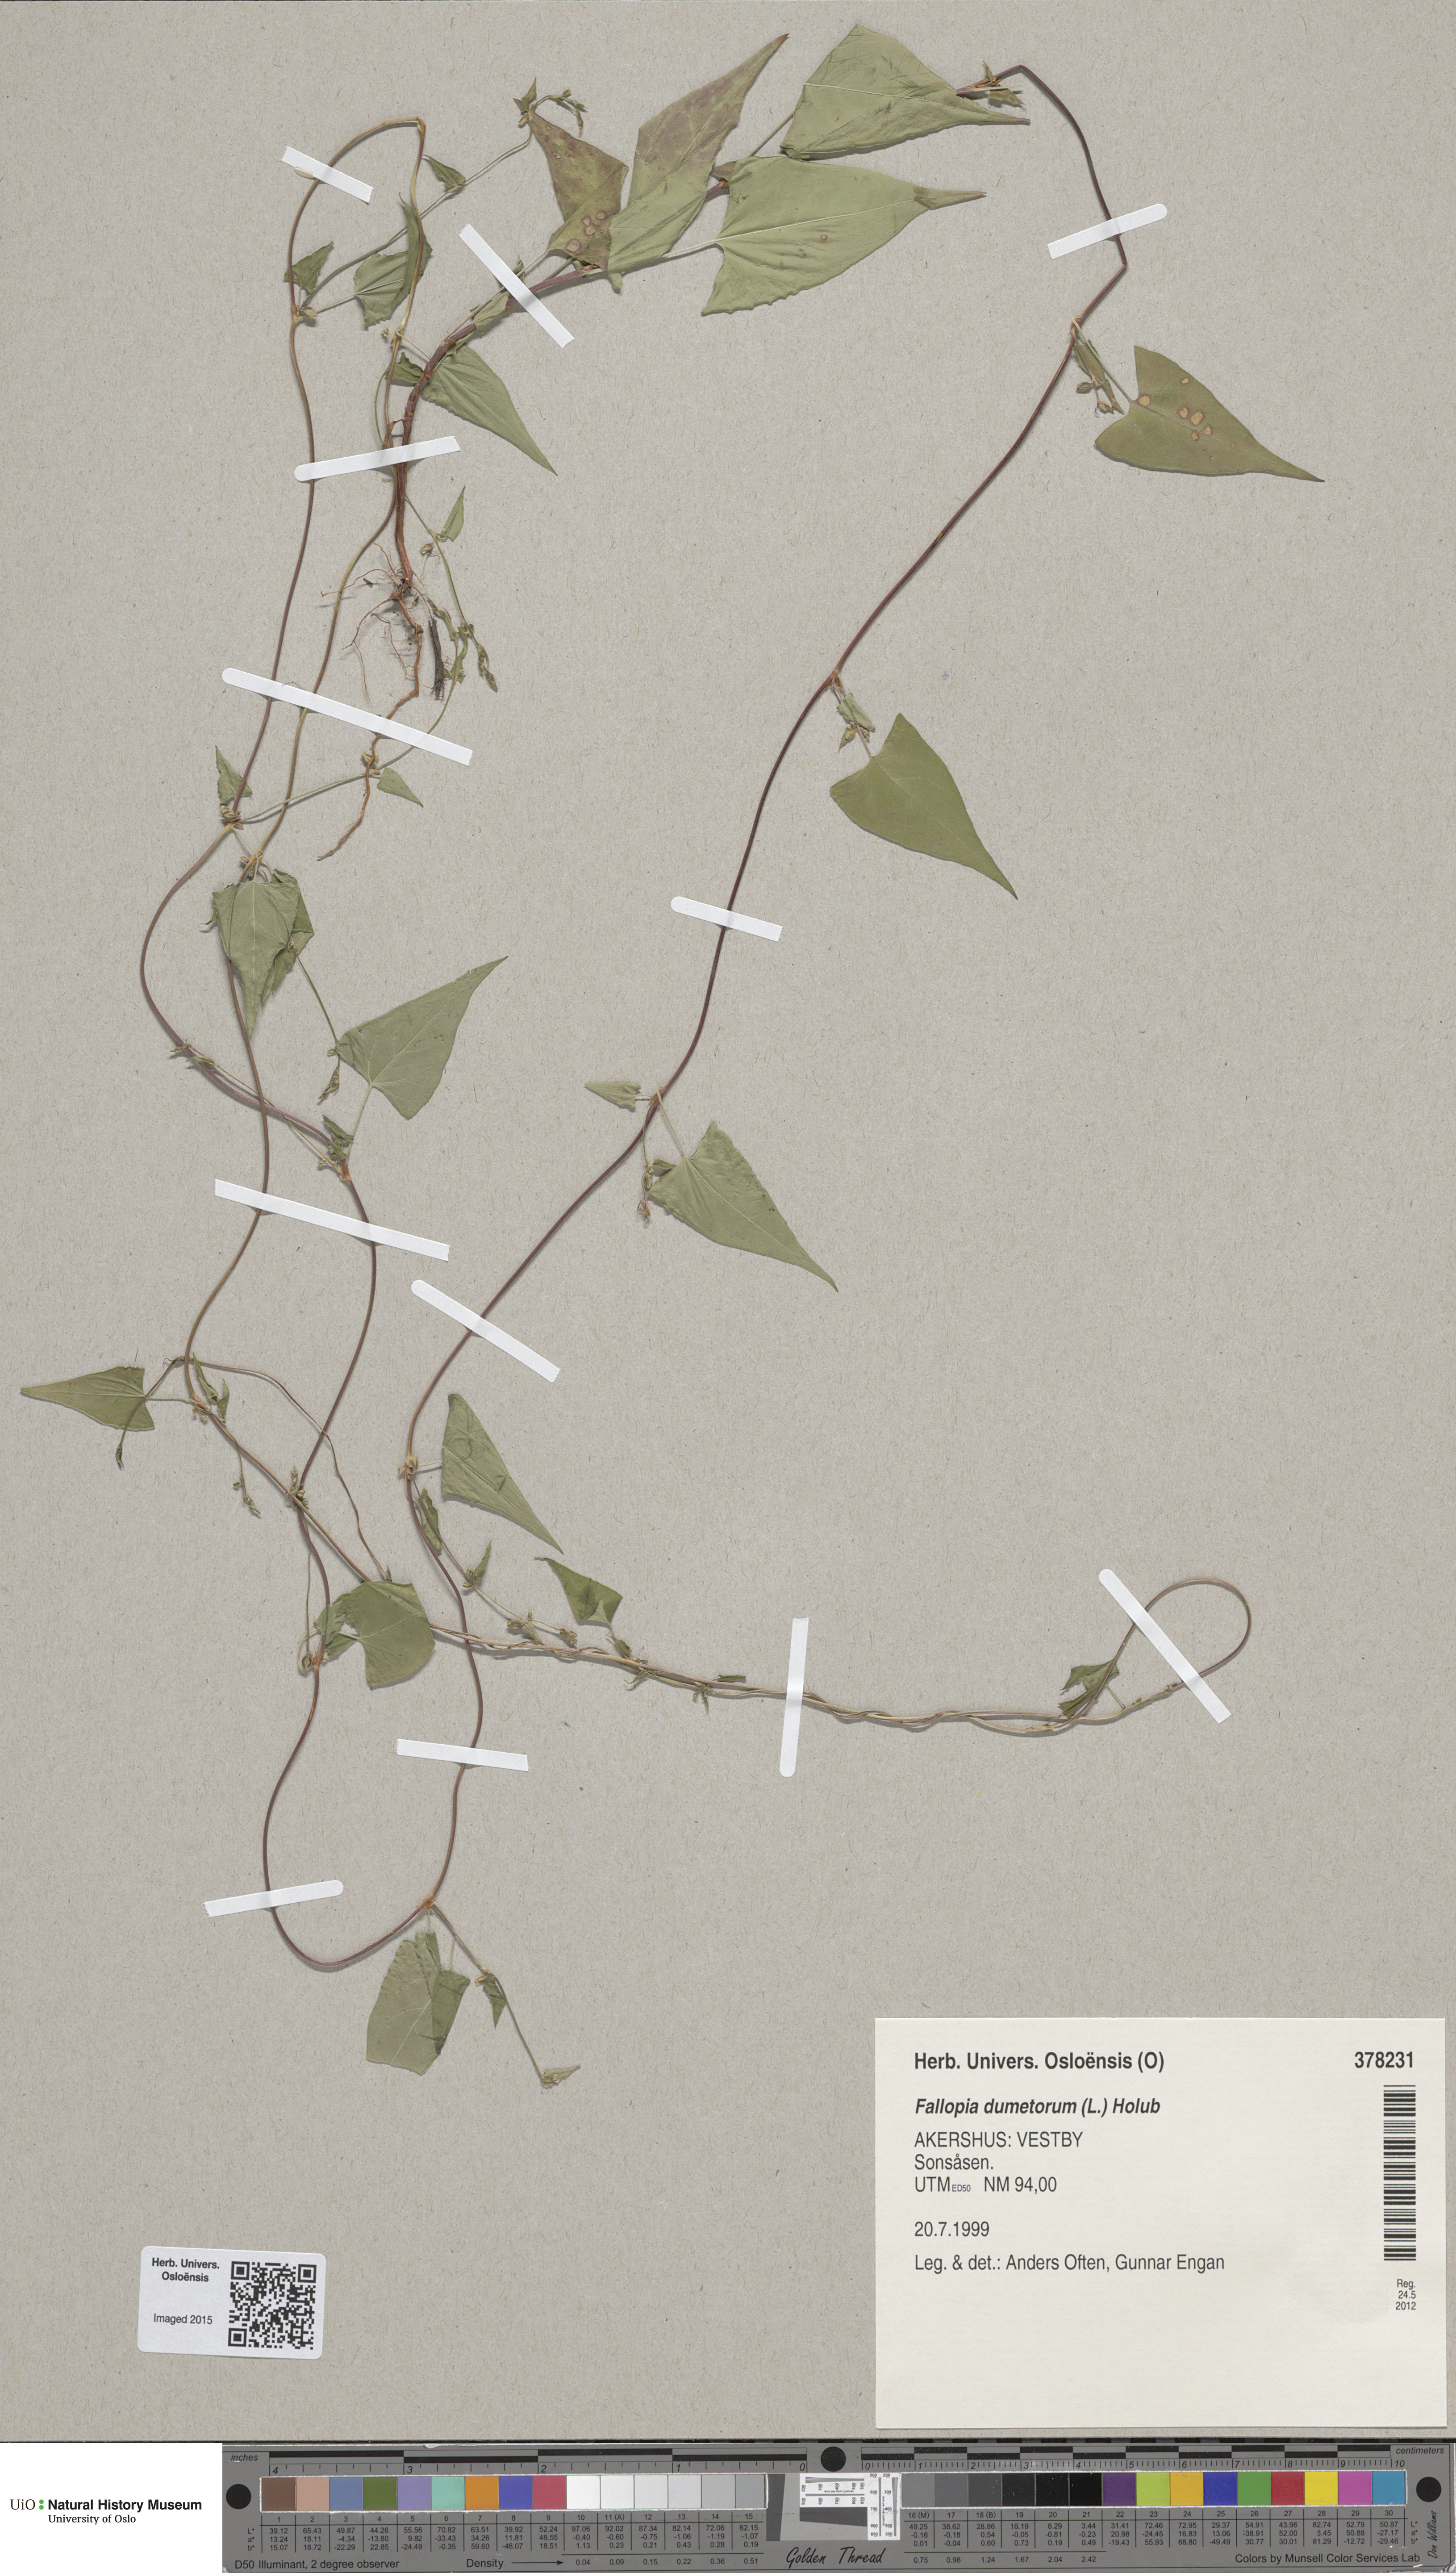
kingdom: Plantae
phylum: Tracheophyta
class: Magnoliopsida
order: Caryophyllales
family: Polygonaceae
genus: Fallopia
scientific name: Fallopia convolvulus
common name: Black bindweed
